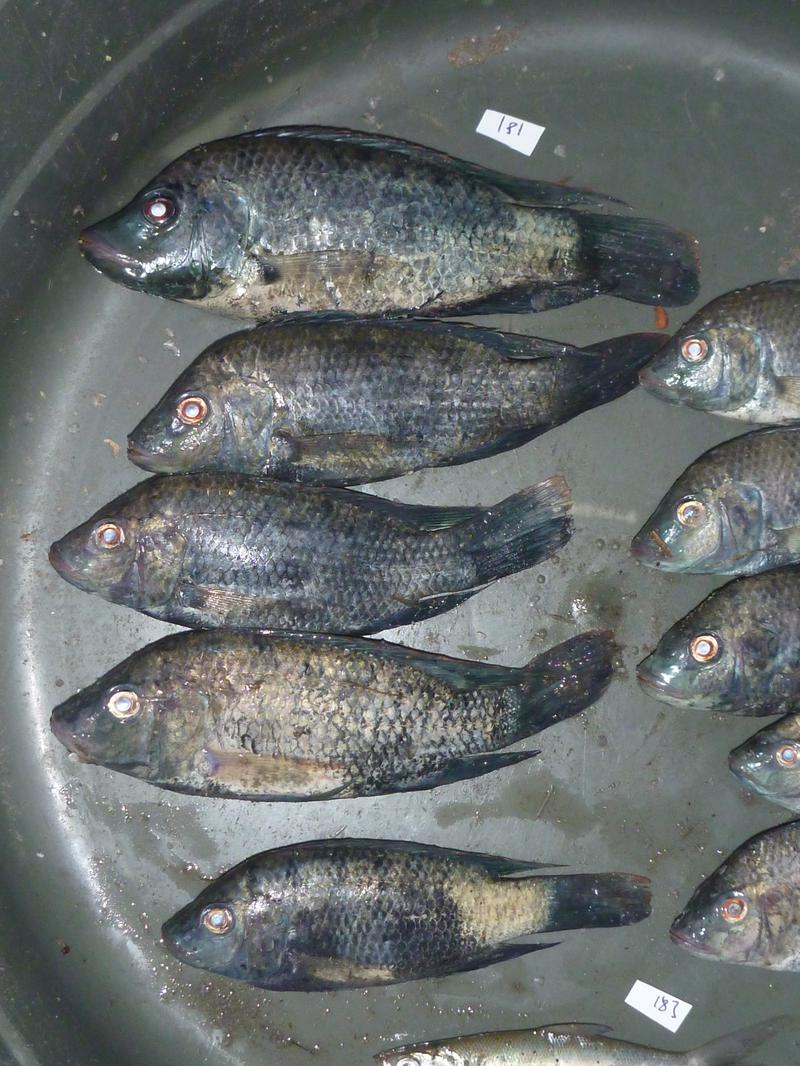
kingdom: Animalia
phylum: Chordata
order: Perciformes
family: Cichlidae
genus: Oreochromis
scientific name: Oreochromis urolepis
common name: Wami tilapia
